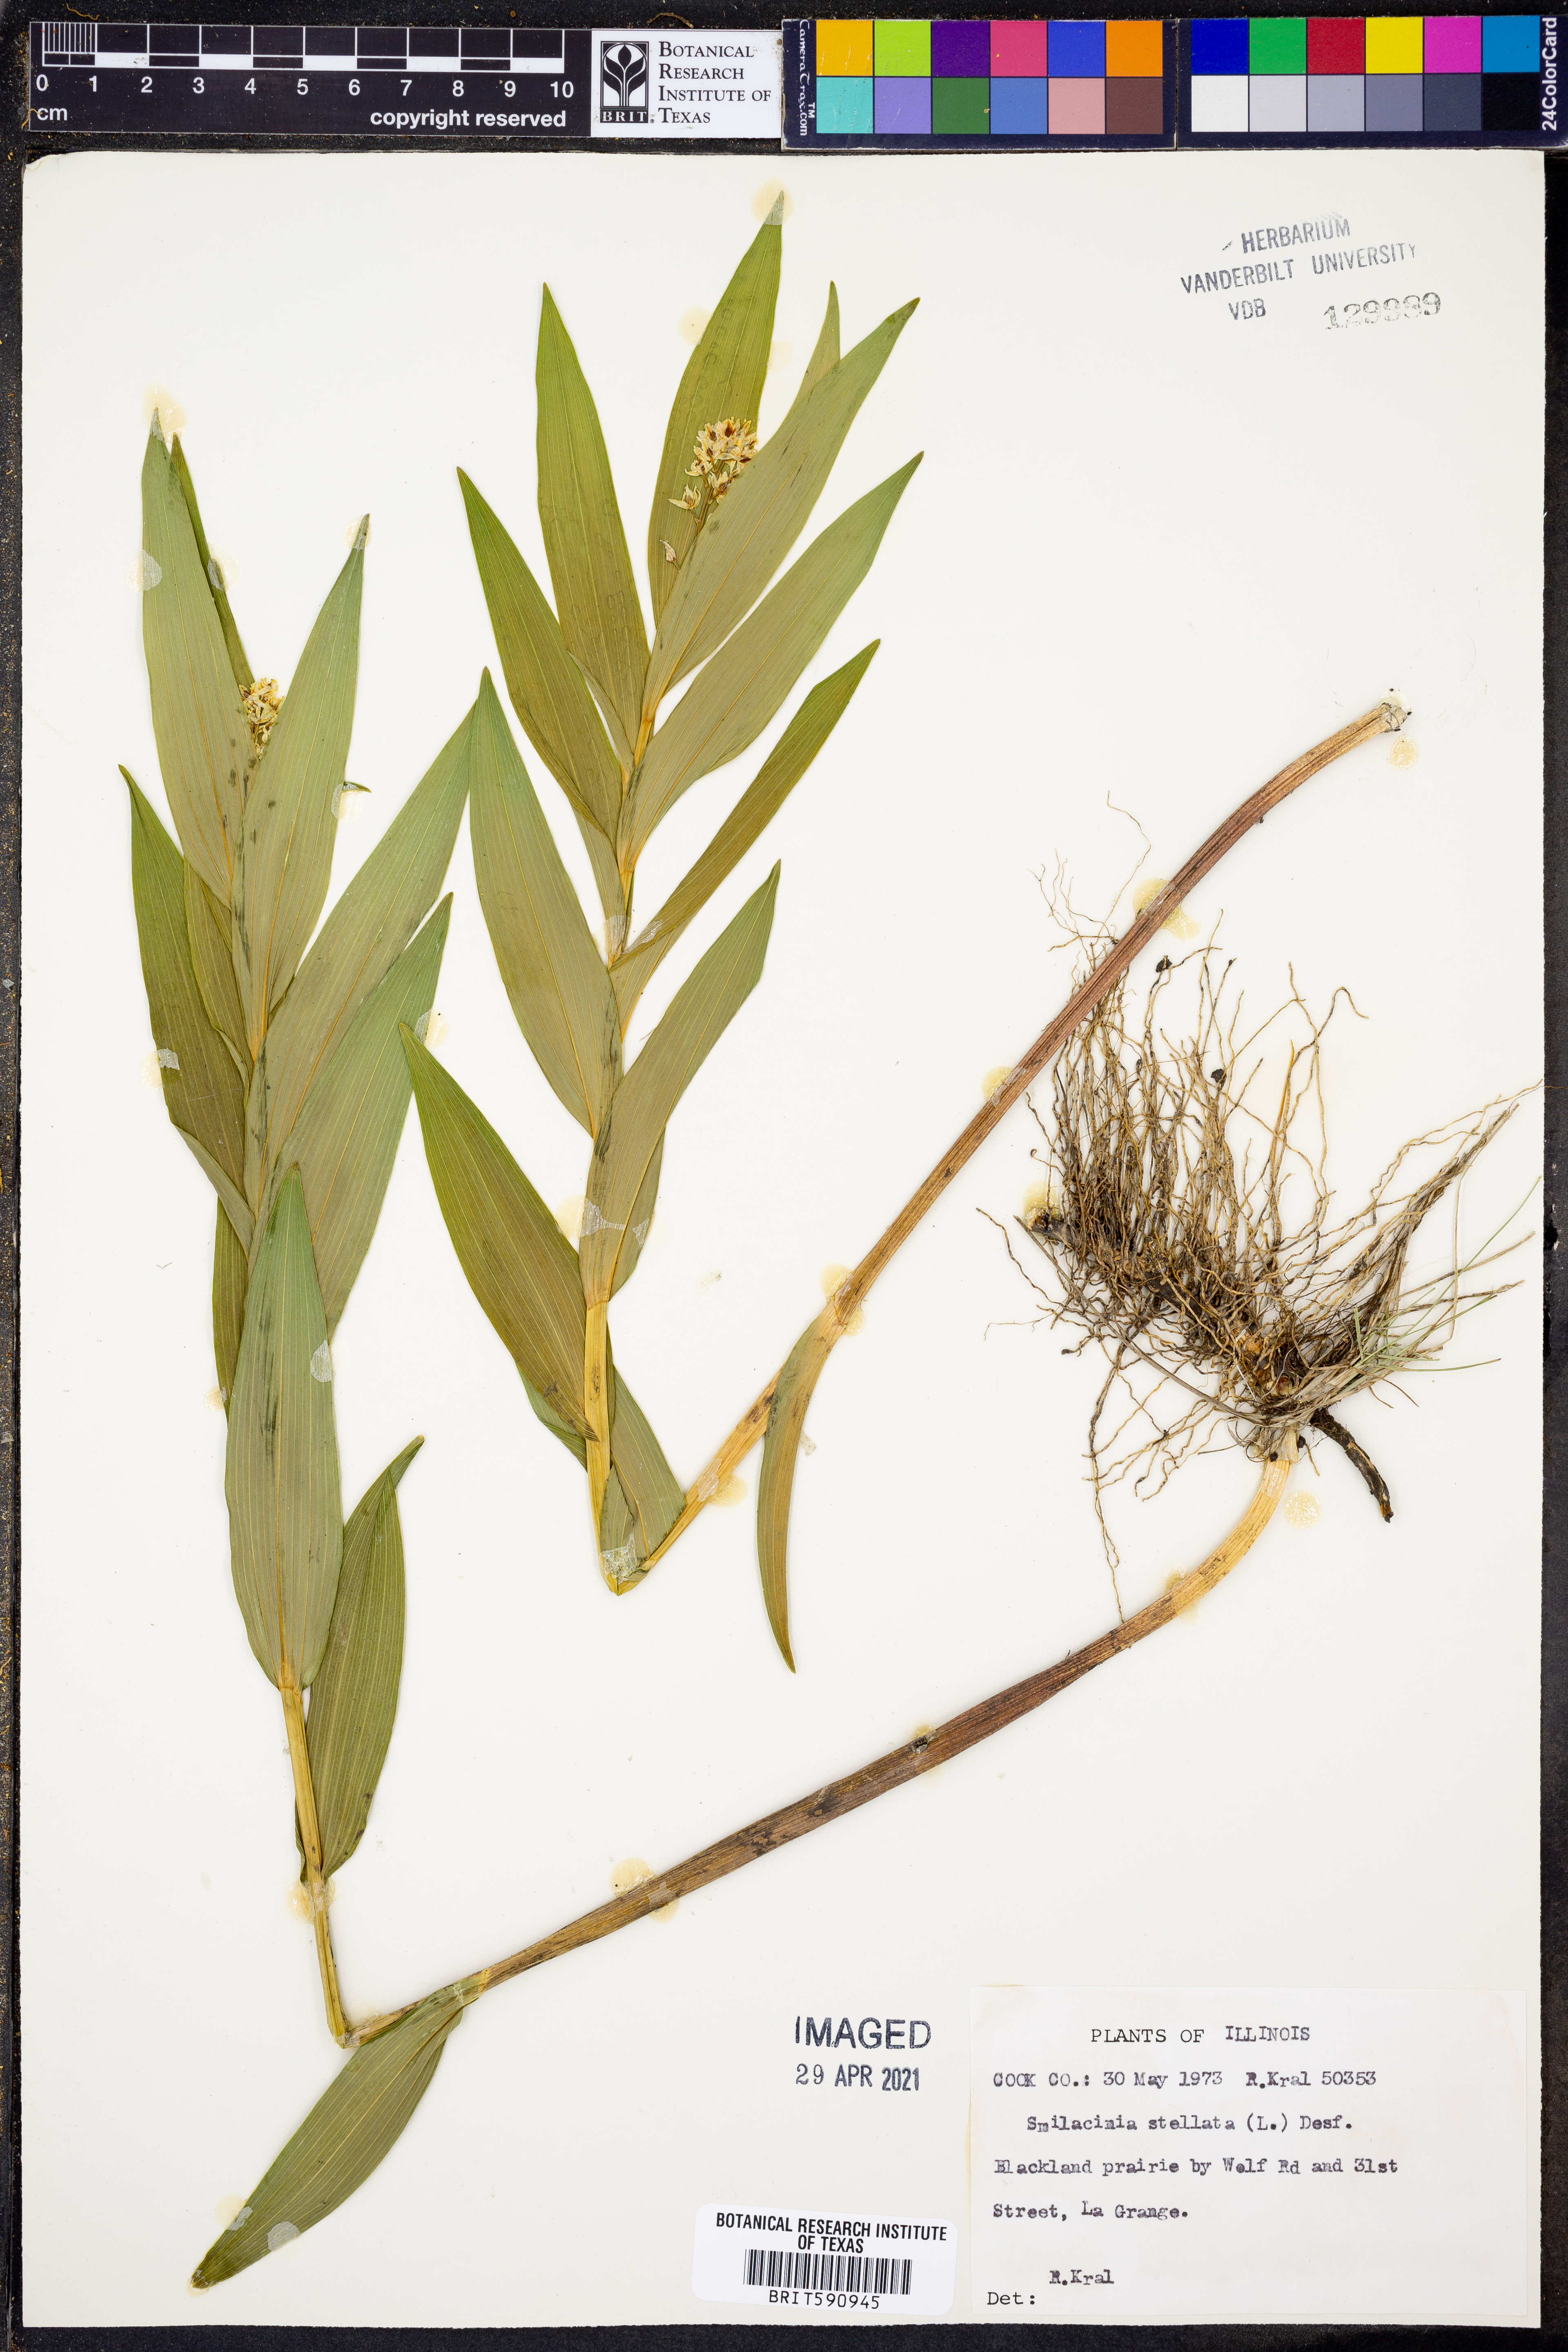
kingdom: Plantae
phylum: Tracheophyta
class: Liliopsida
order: Asparagales
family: Asparagaceae
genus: Maianthemum
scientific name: Maianthemum stellatum
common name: Little false solomon's seal
